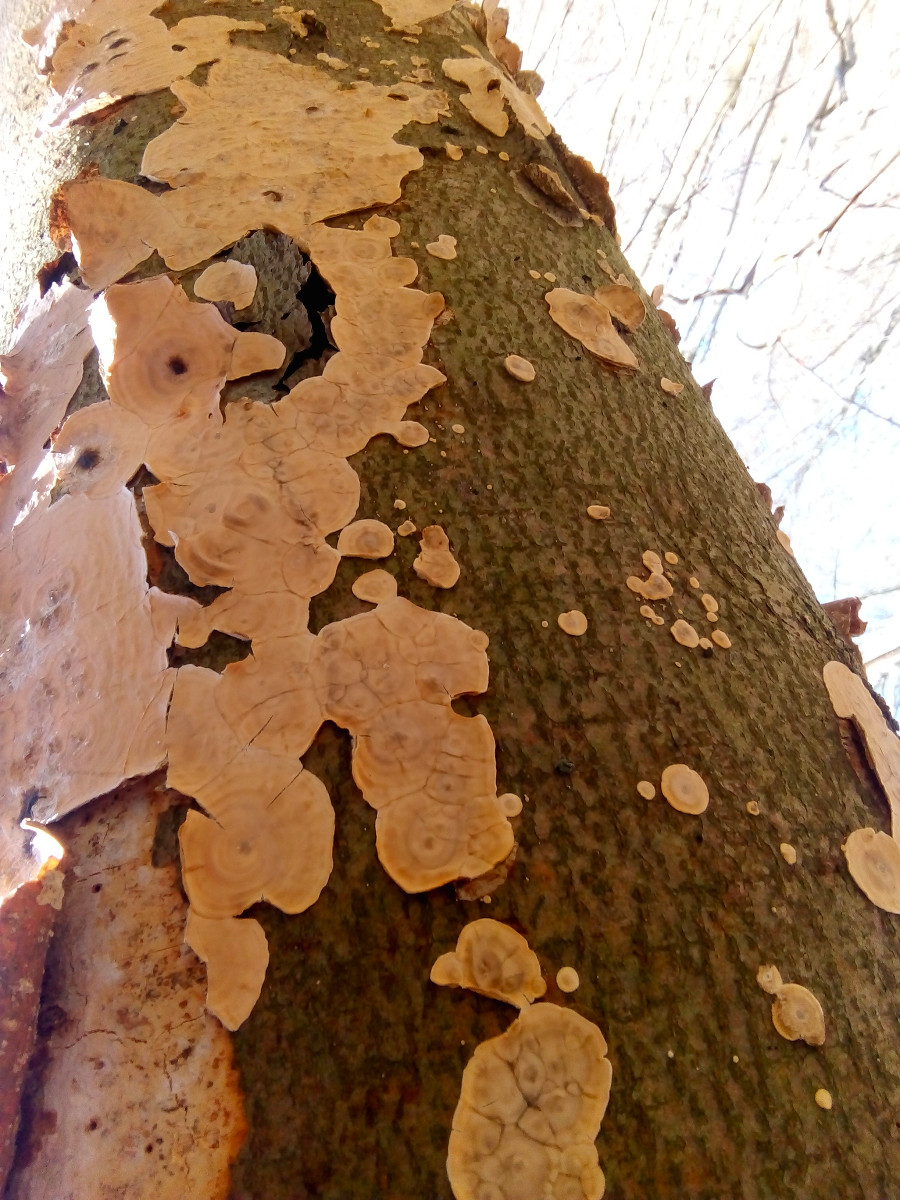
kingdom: Fungi
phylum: Basidiomycota
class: Agaricomycetes
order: Agaricales
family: Physalacriaceae
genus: Cylindrobasidium
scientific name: Cylindrobasidium evolvens
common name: sprækkehinde
